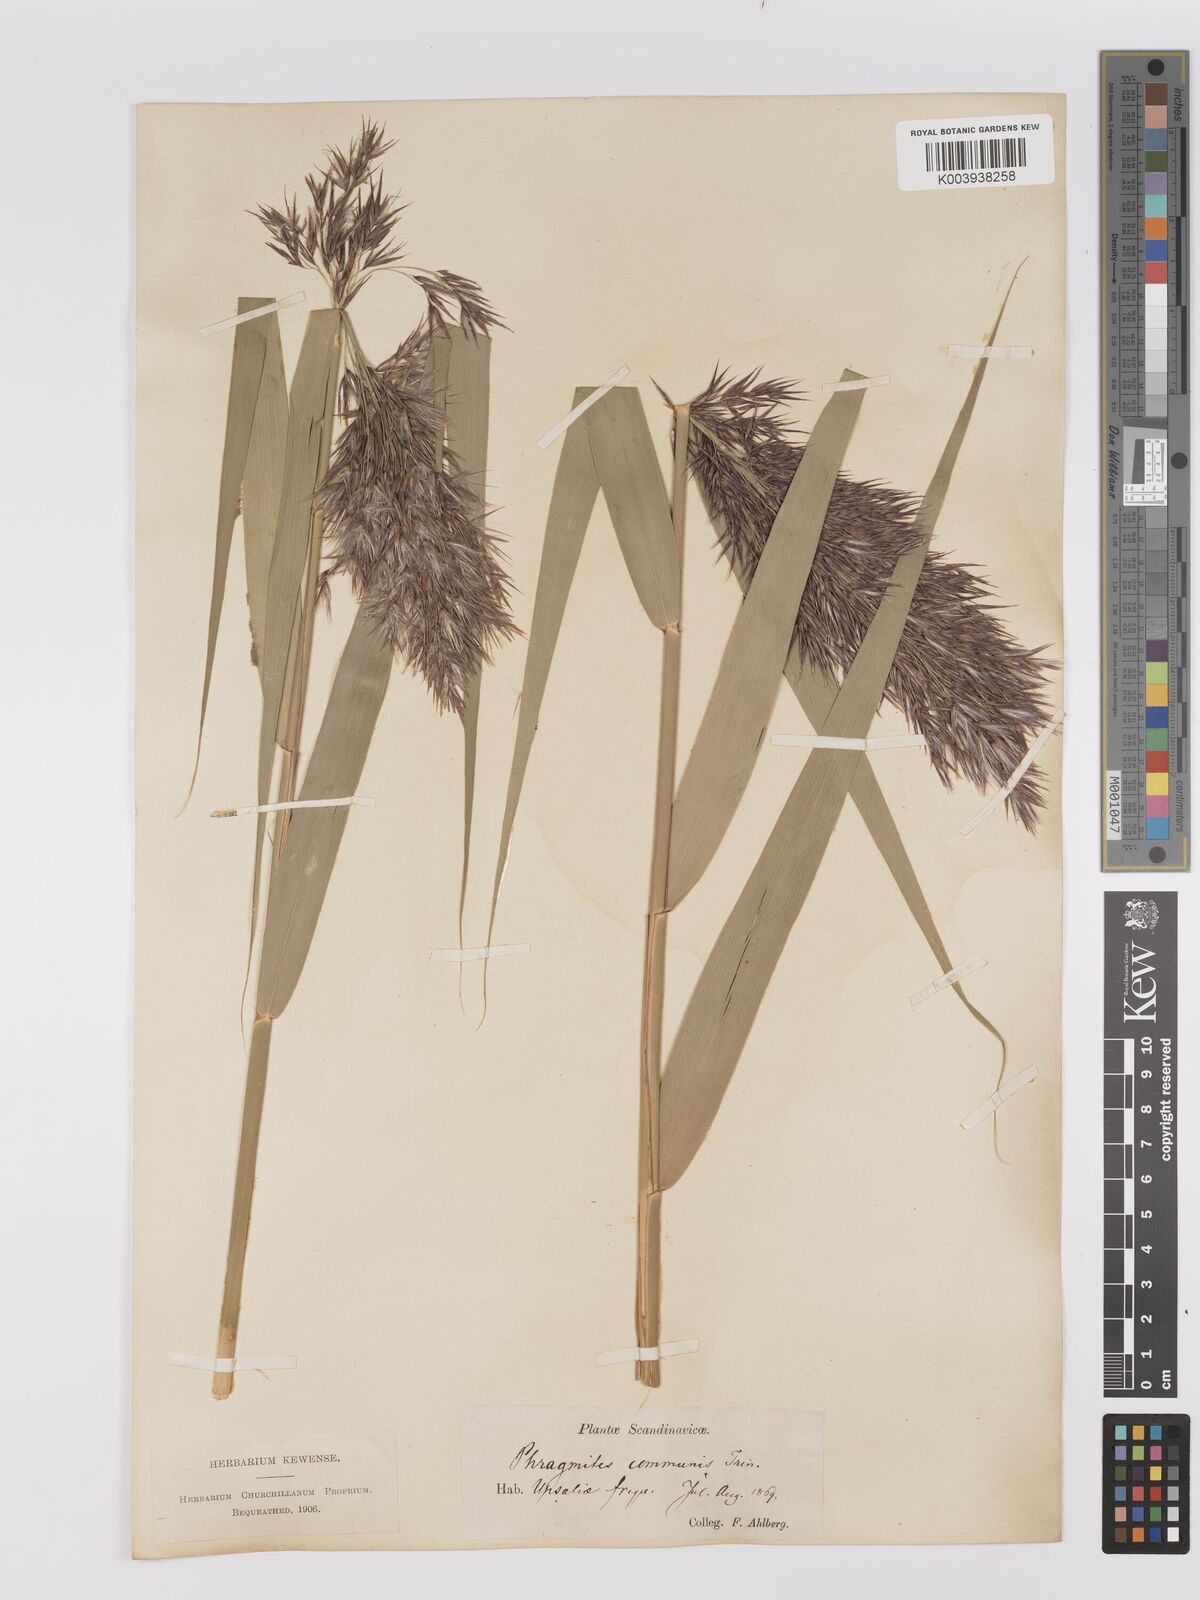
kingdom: Plantae
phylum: Tracheophyta
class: Liliopsida
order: Poales
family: Poaceae
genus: Phragmites
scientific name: Phragmites australis
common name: Common reed
